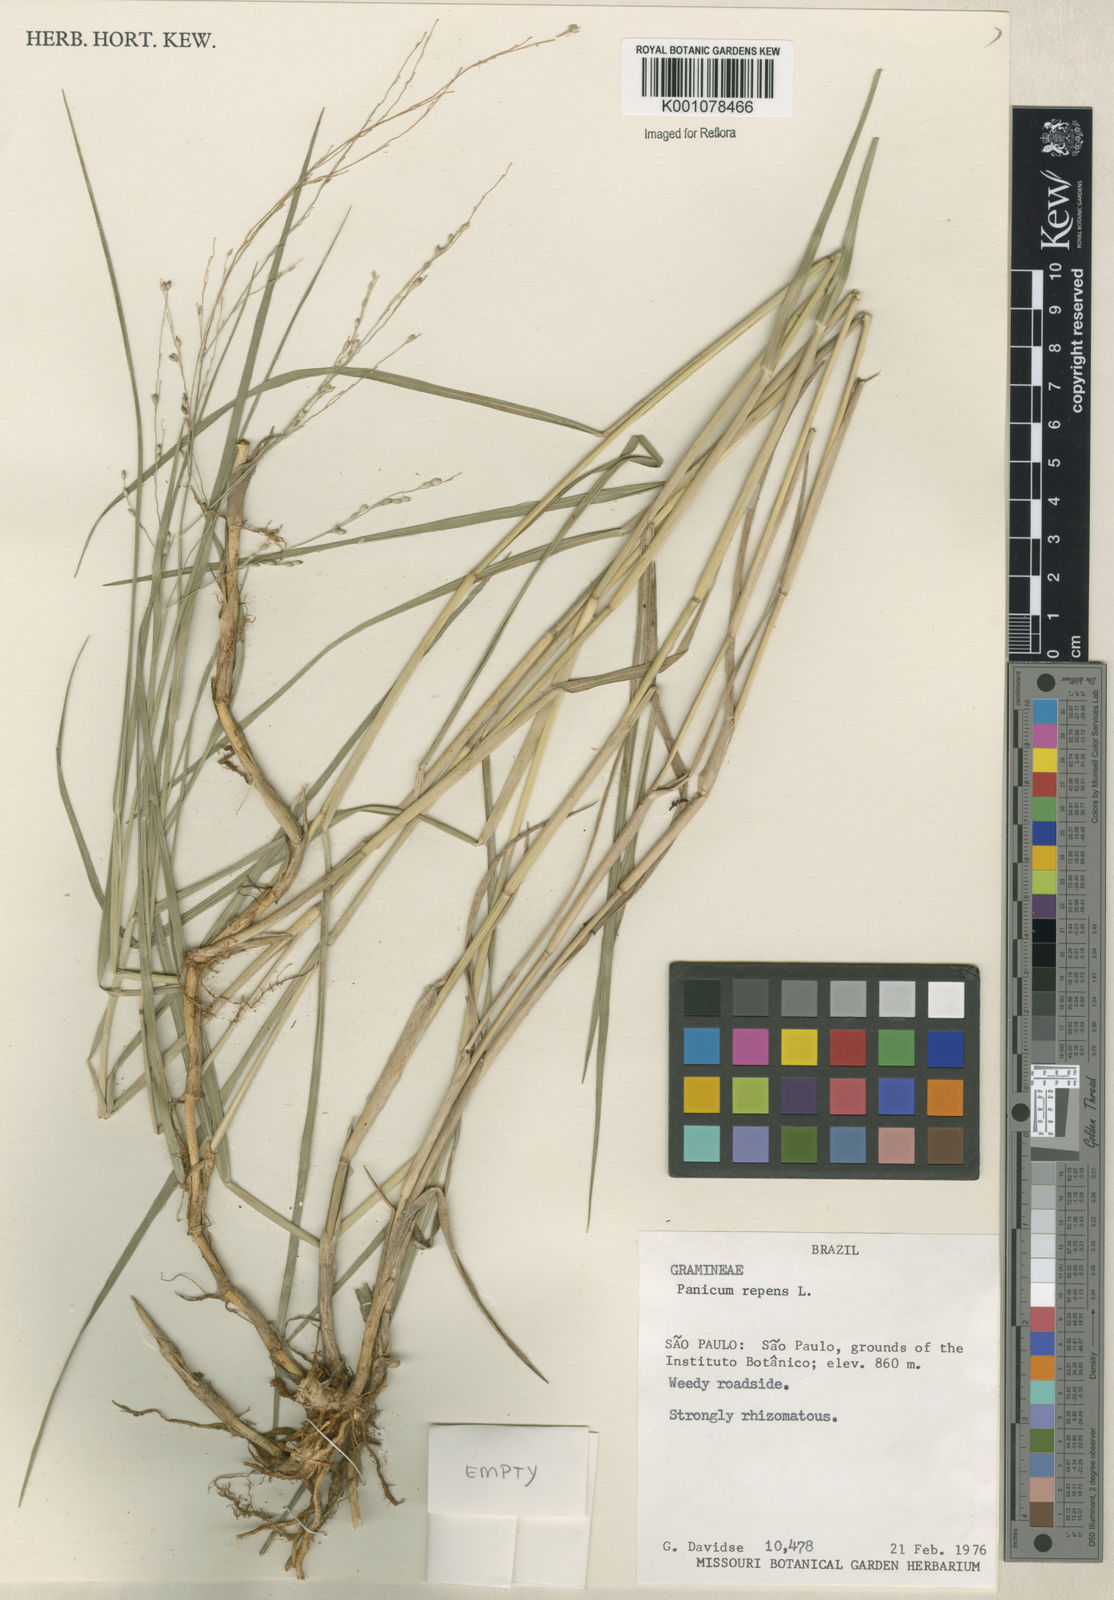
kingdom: Plantae
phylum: Tracheophyta
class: Liliopsida
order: Poales
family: Poaceae
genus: Panicum
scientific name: Panicum repens
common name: Torpedo grass
